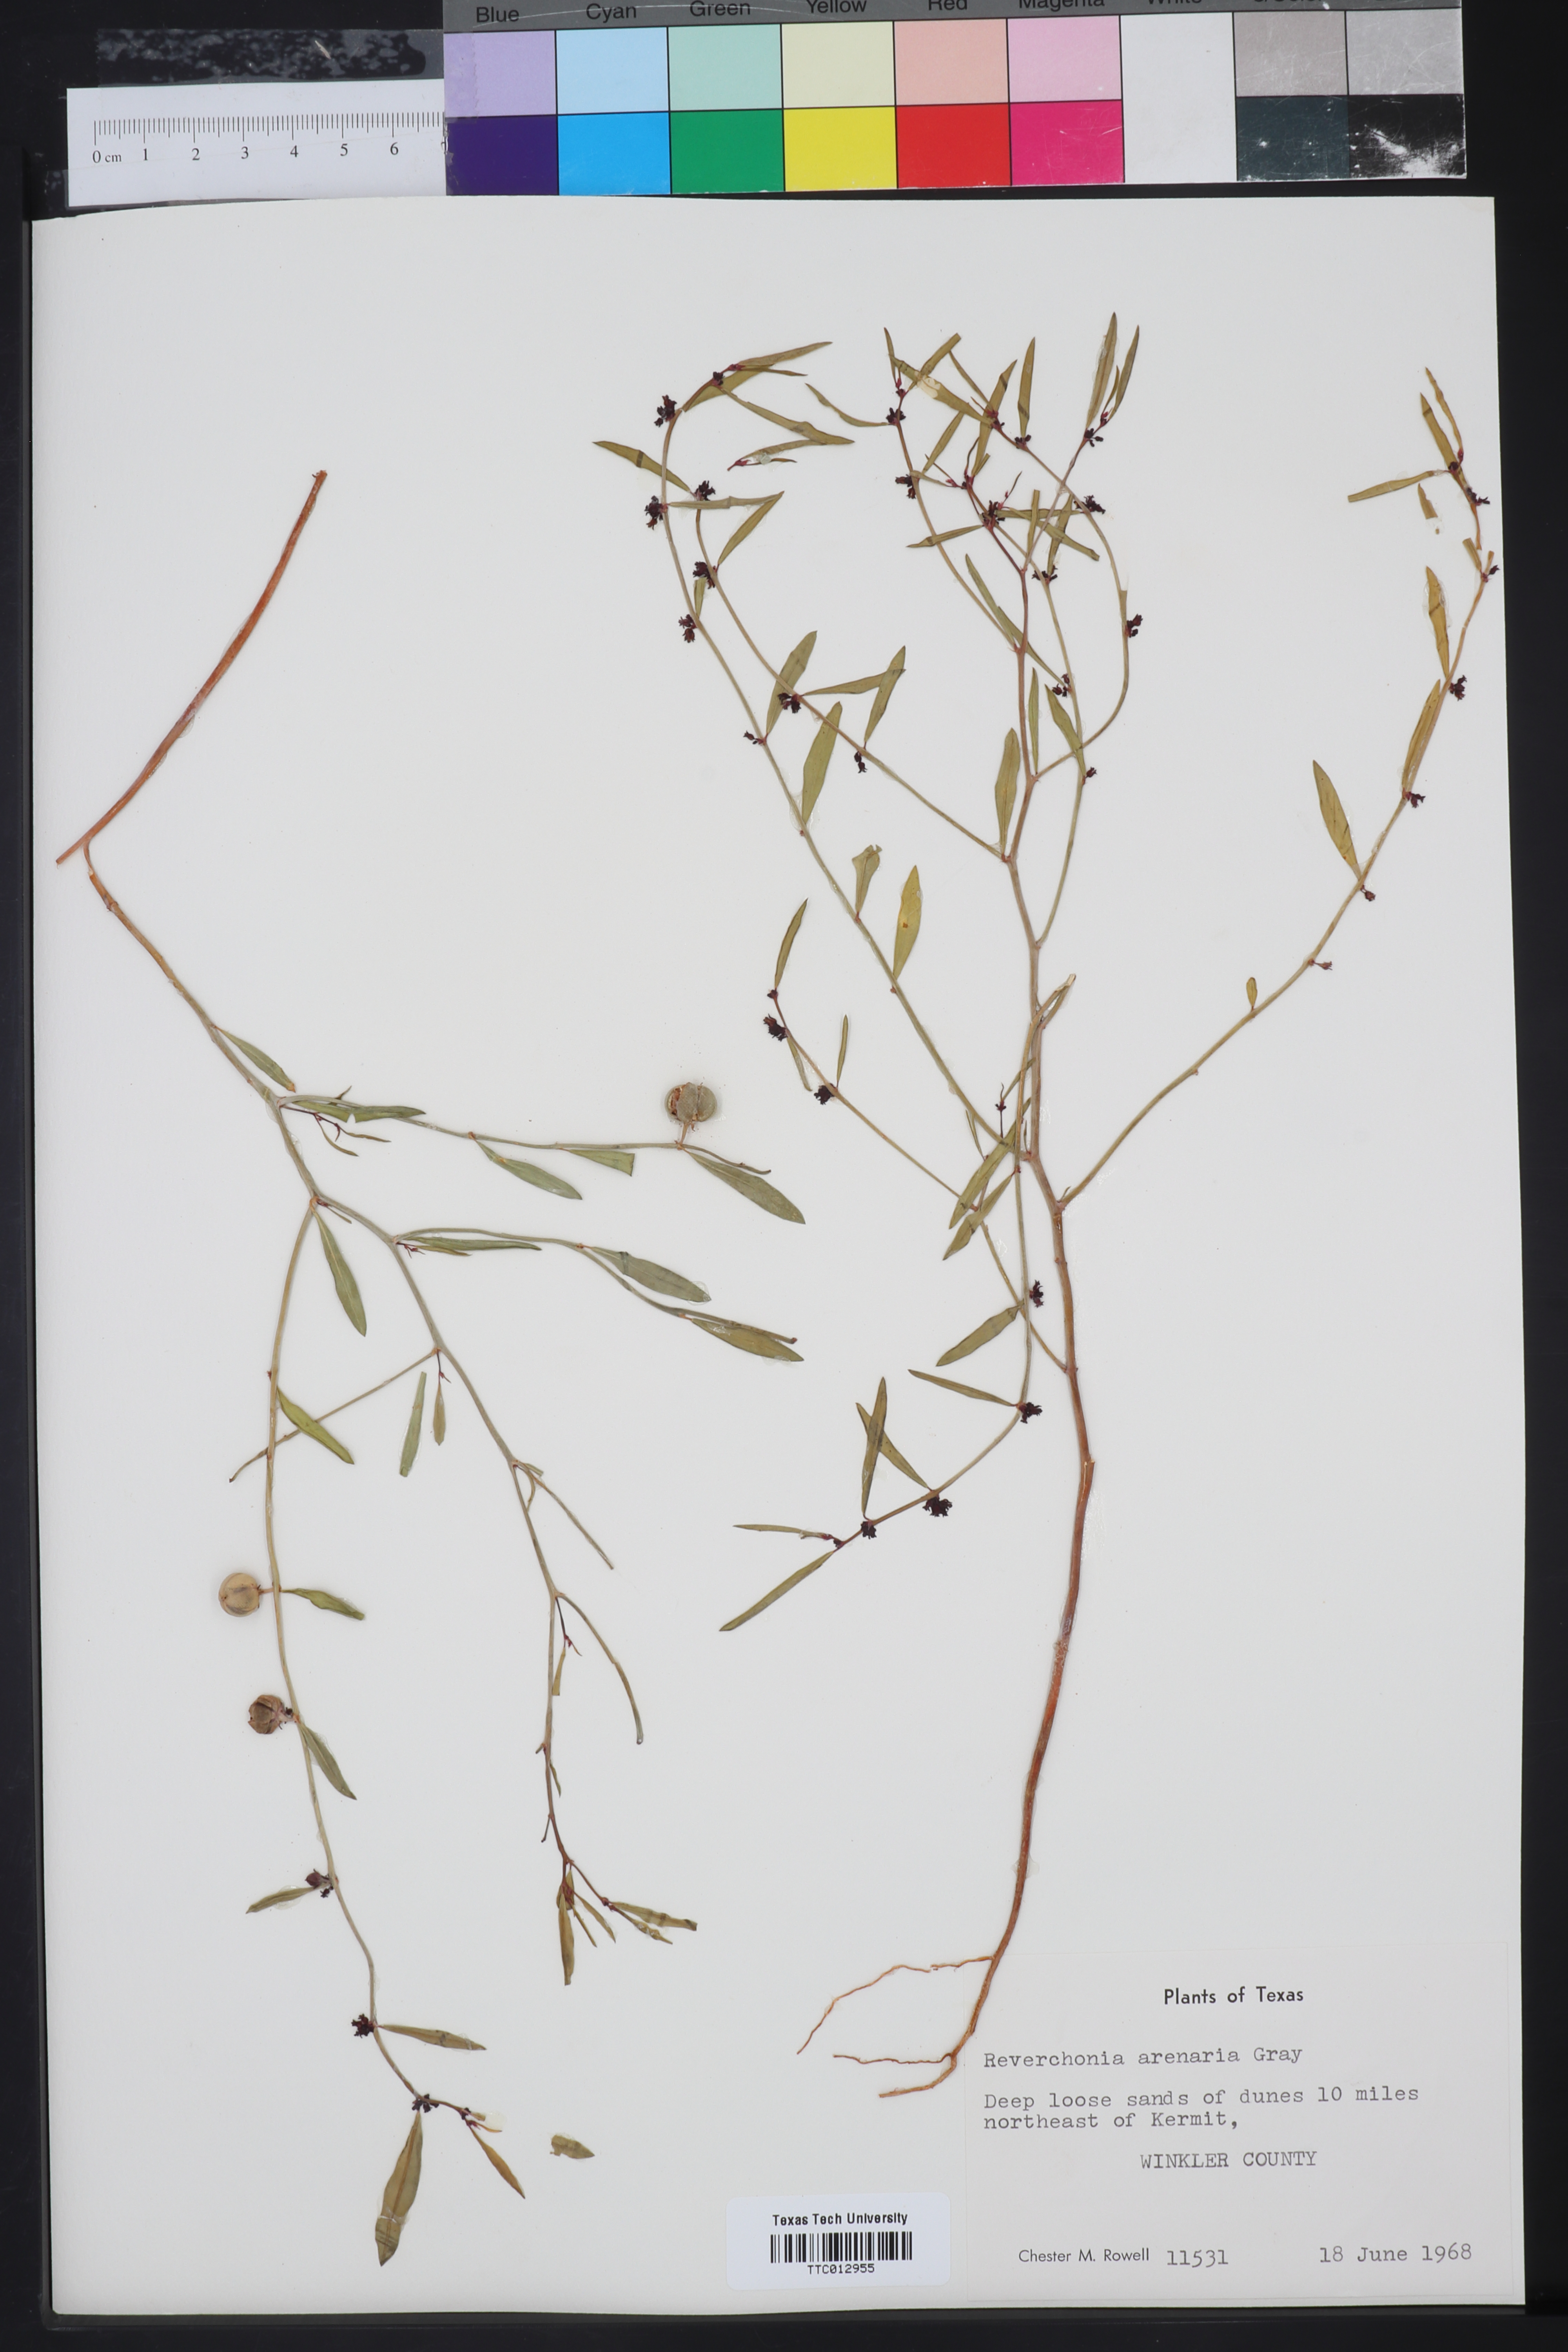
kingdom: Plantae
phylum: Tracheophyta
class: Magnoliopsida
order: Malpighiales
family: Phyllanthaceae
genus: Phyllanthus
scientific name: Phyllanthus warnockii
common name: Sand reverchonia
